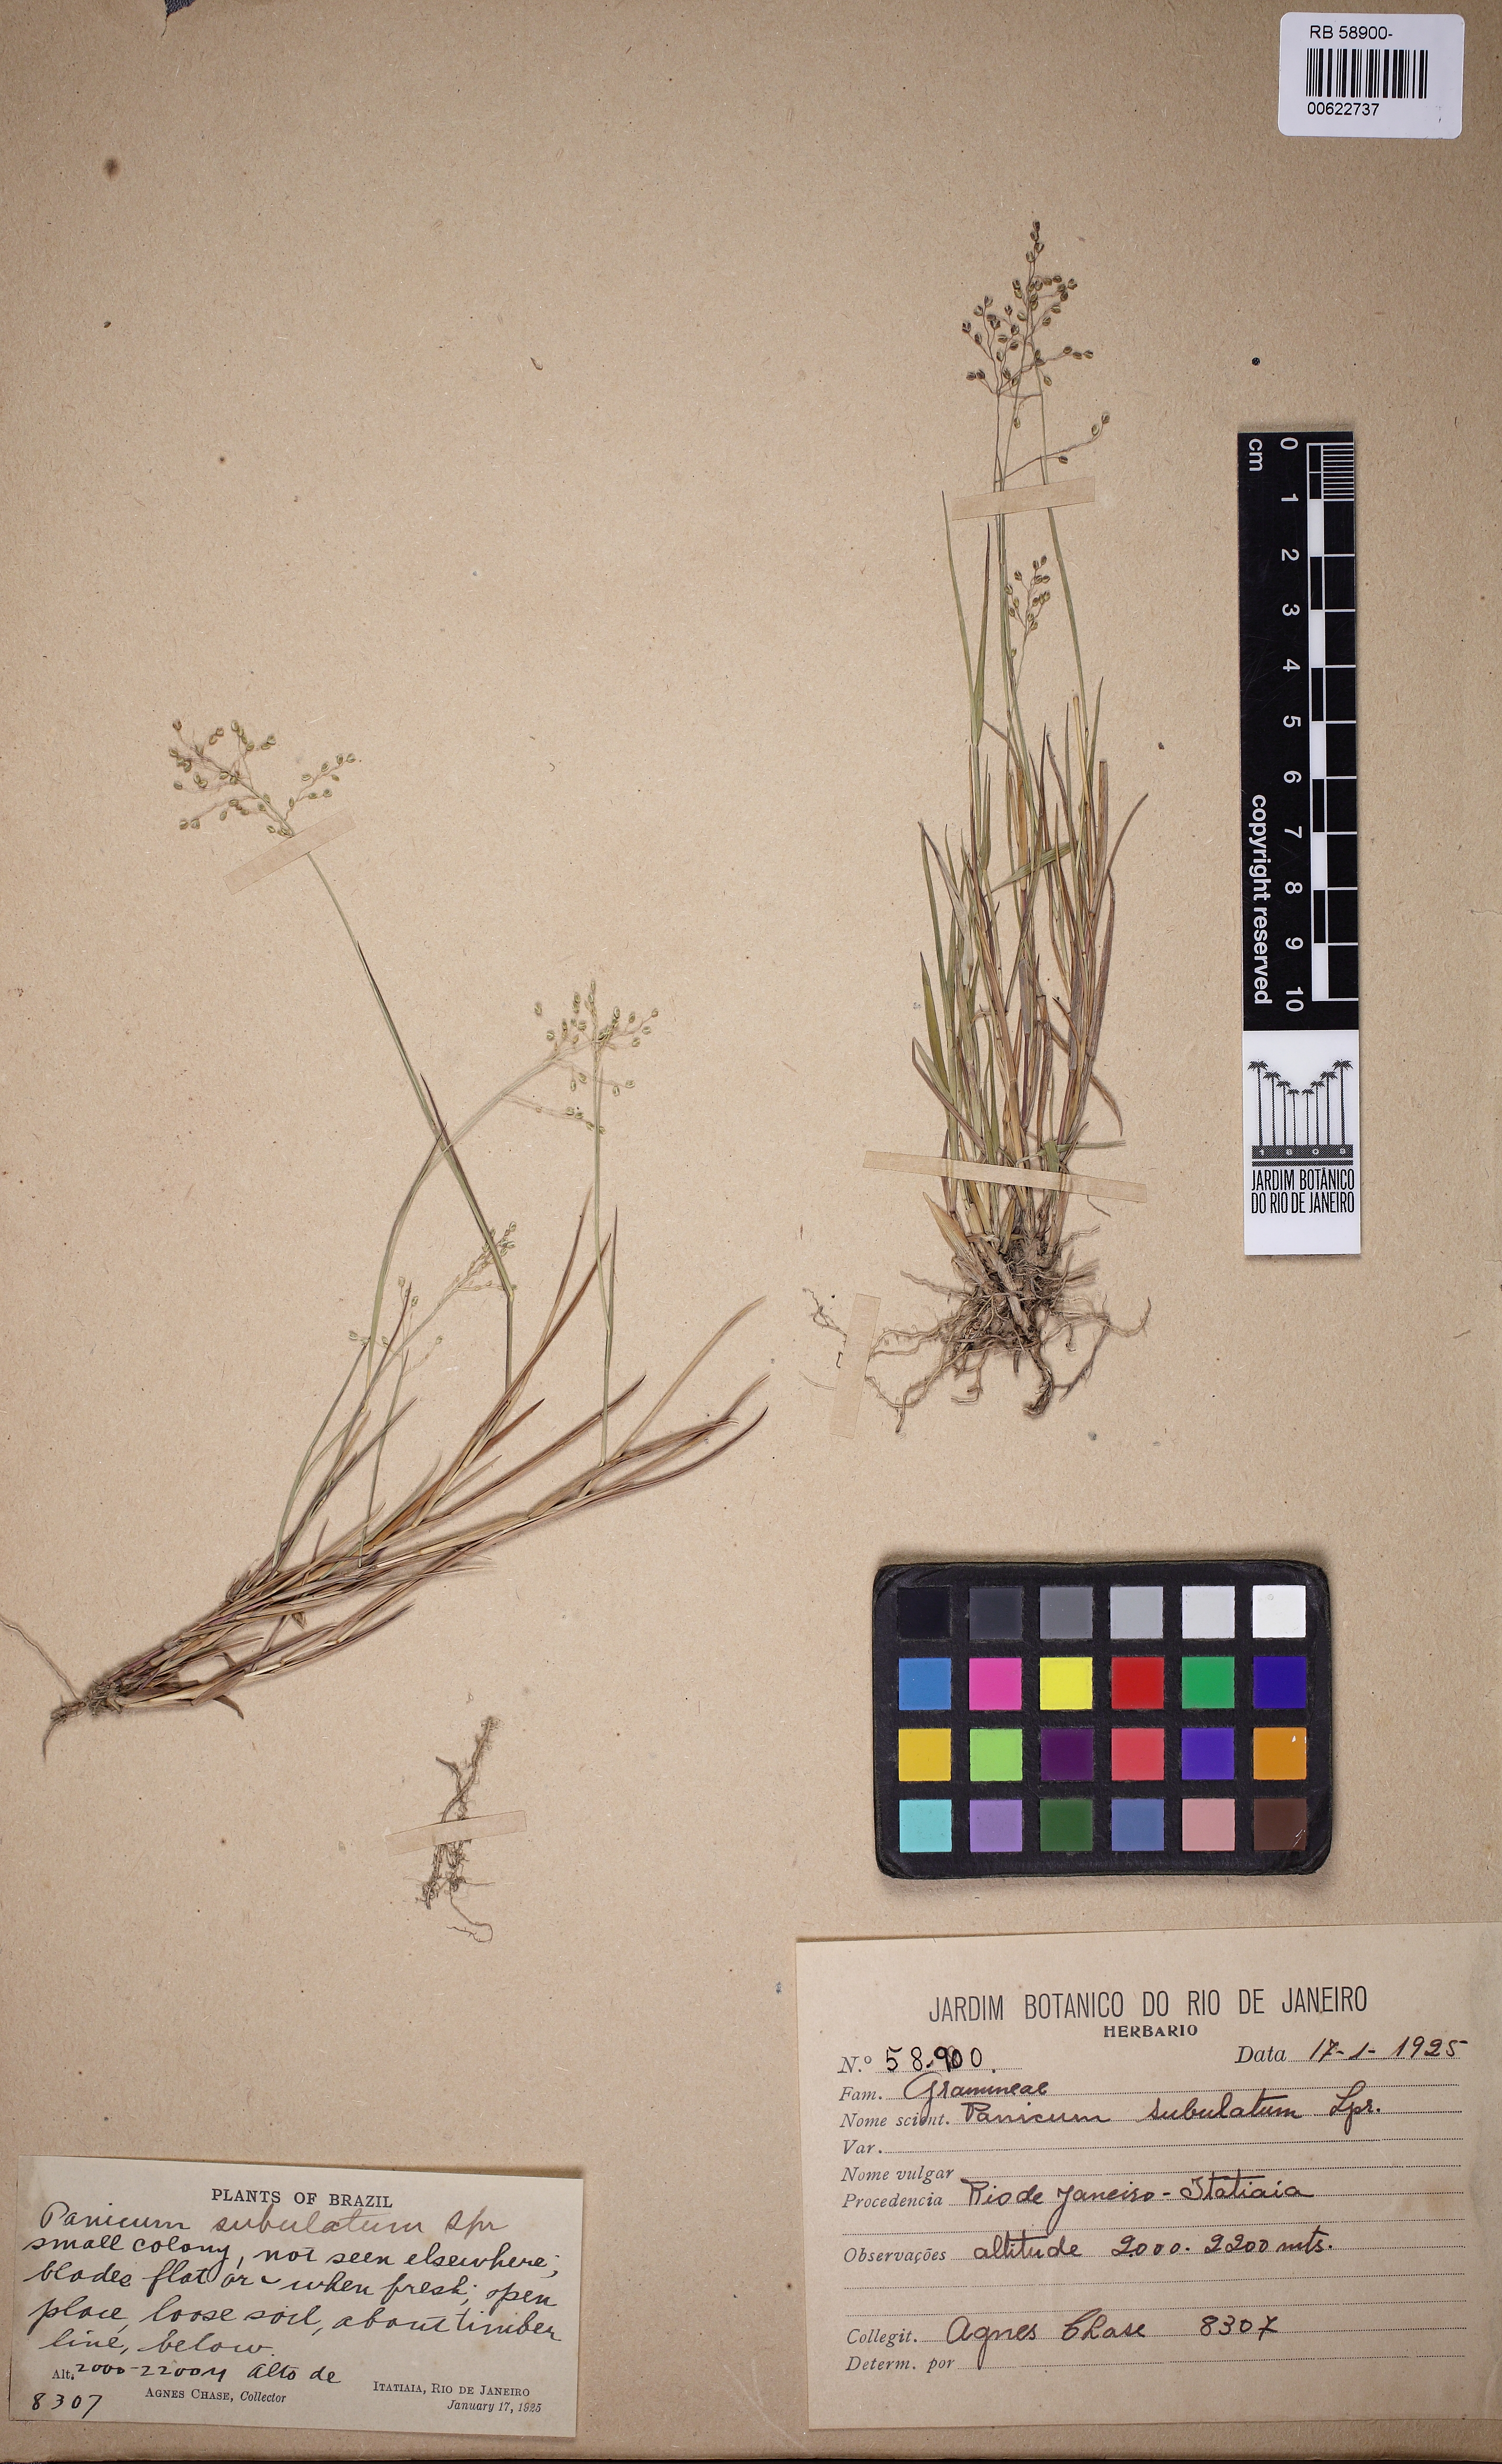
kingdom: Plantae
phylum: Tracheophyta
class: Liliopsida
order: Poales
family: Poaceae
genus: Trichanthecium
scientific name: Trichanthecium distichophyllum
